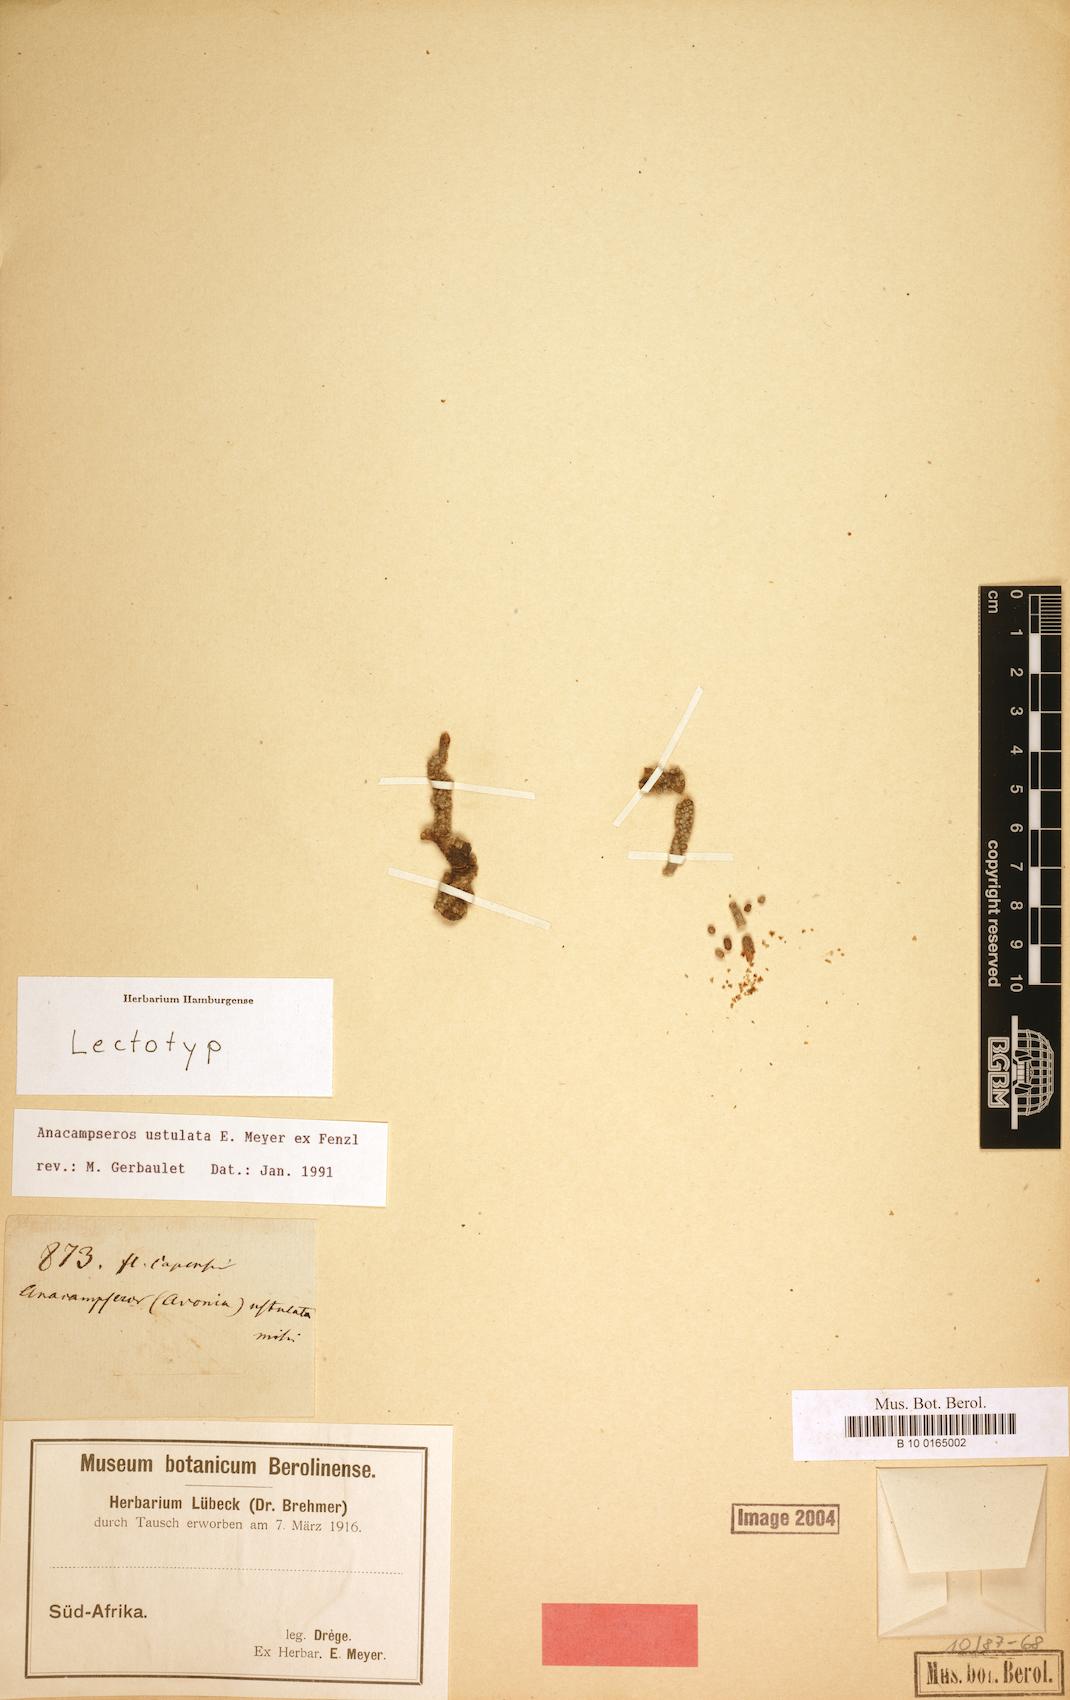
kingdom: Plantae
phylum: Tracheophyta
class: Magnoliopsida
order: Caryophyllales
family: Anacampserotaceae
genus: Avonia
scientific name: Avonia ustulata
